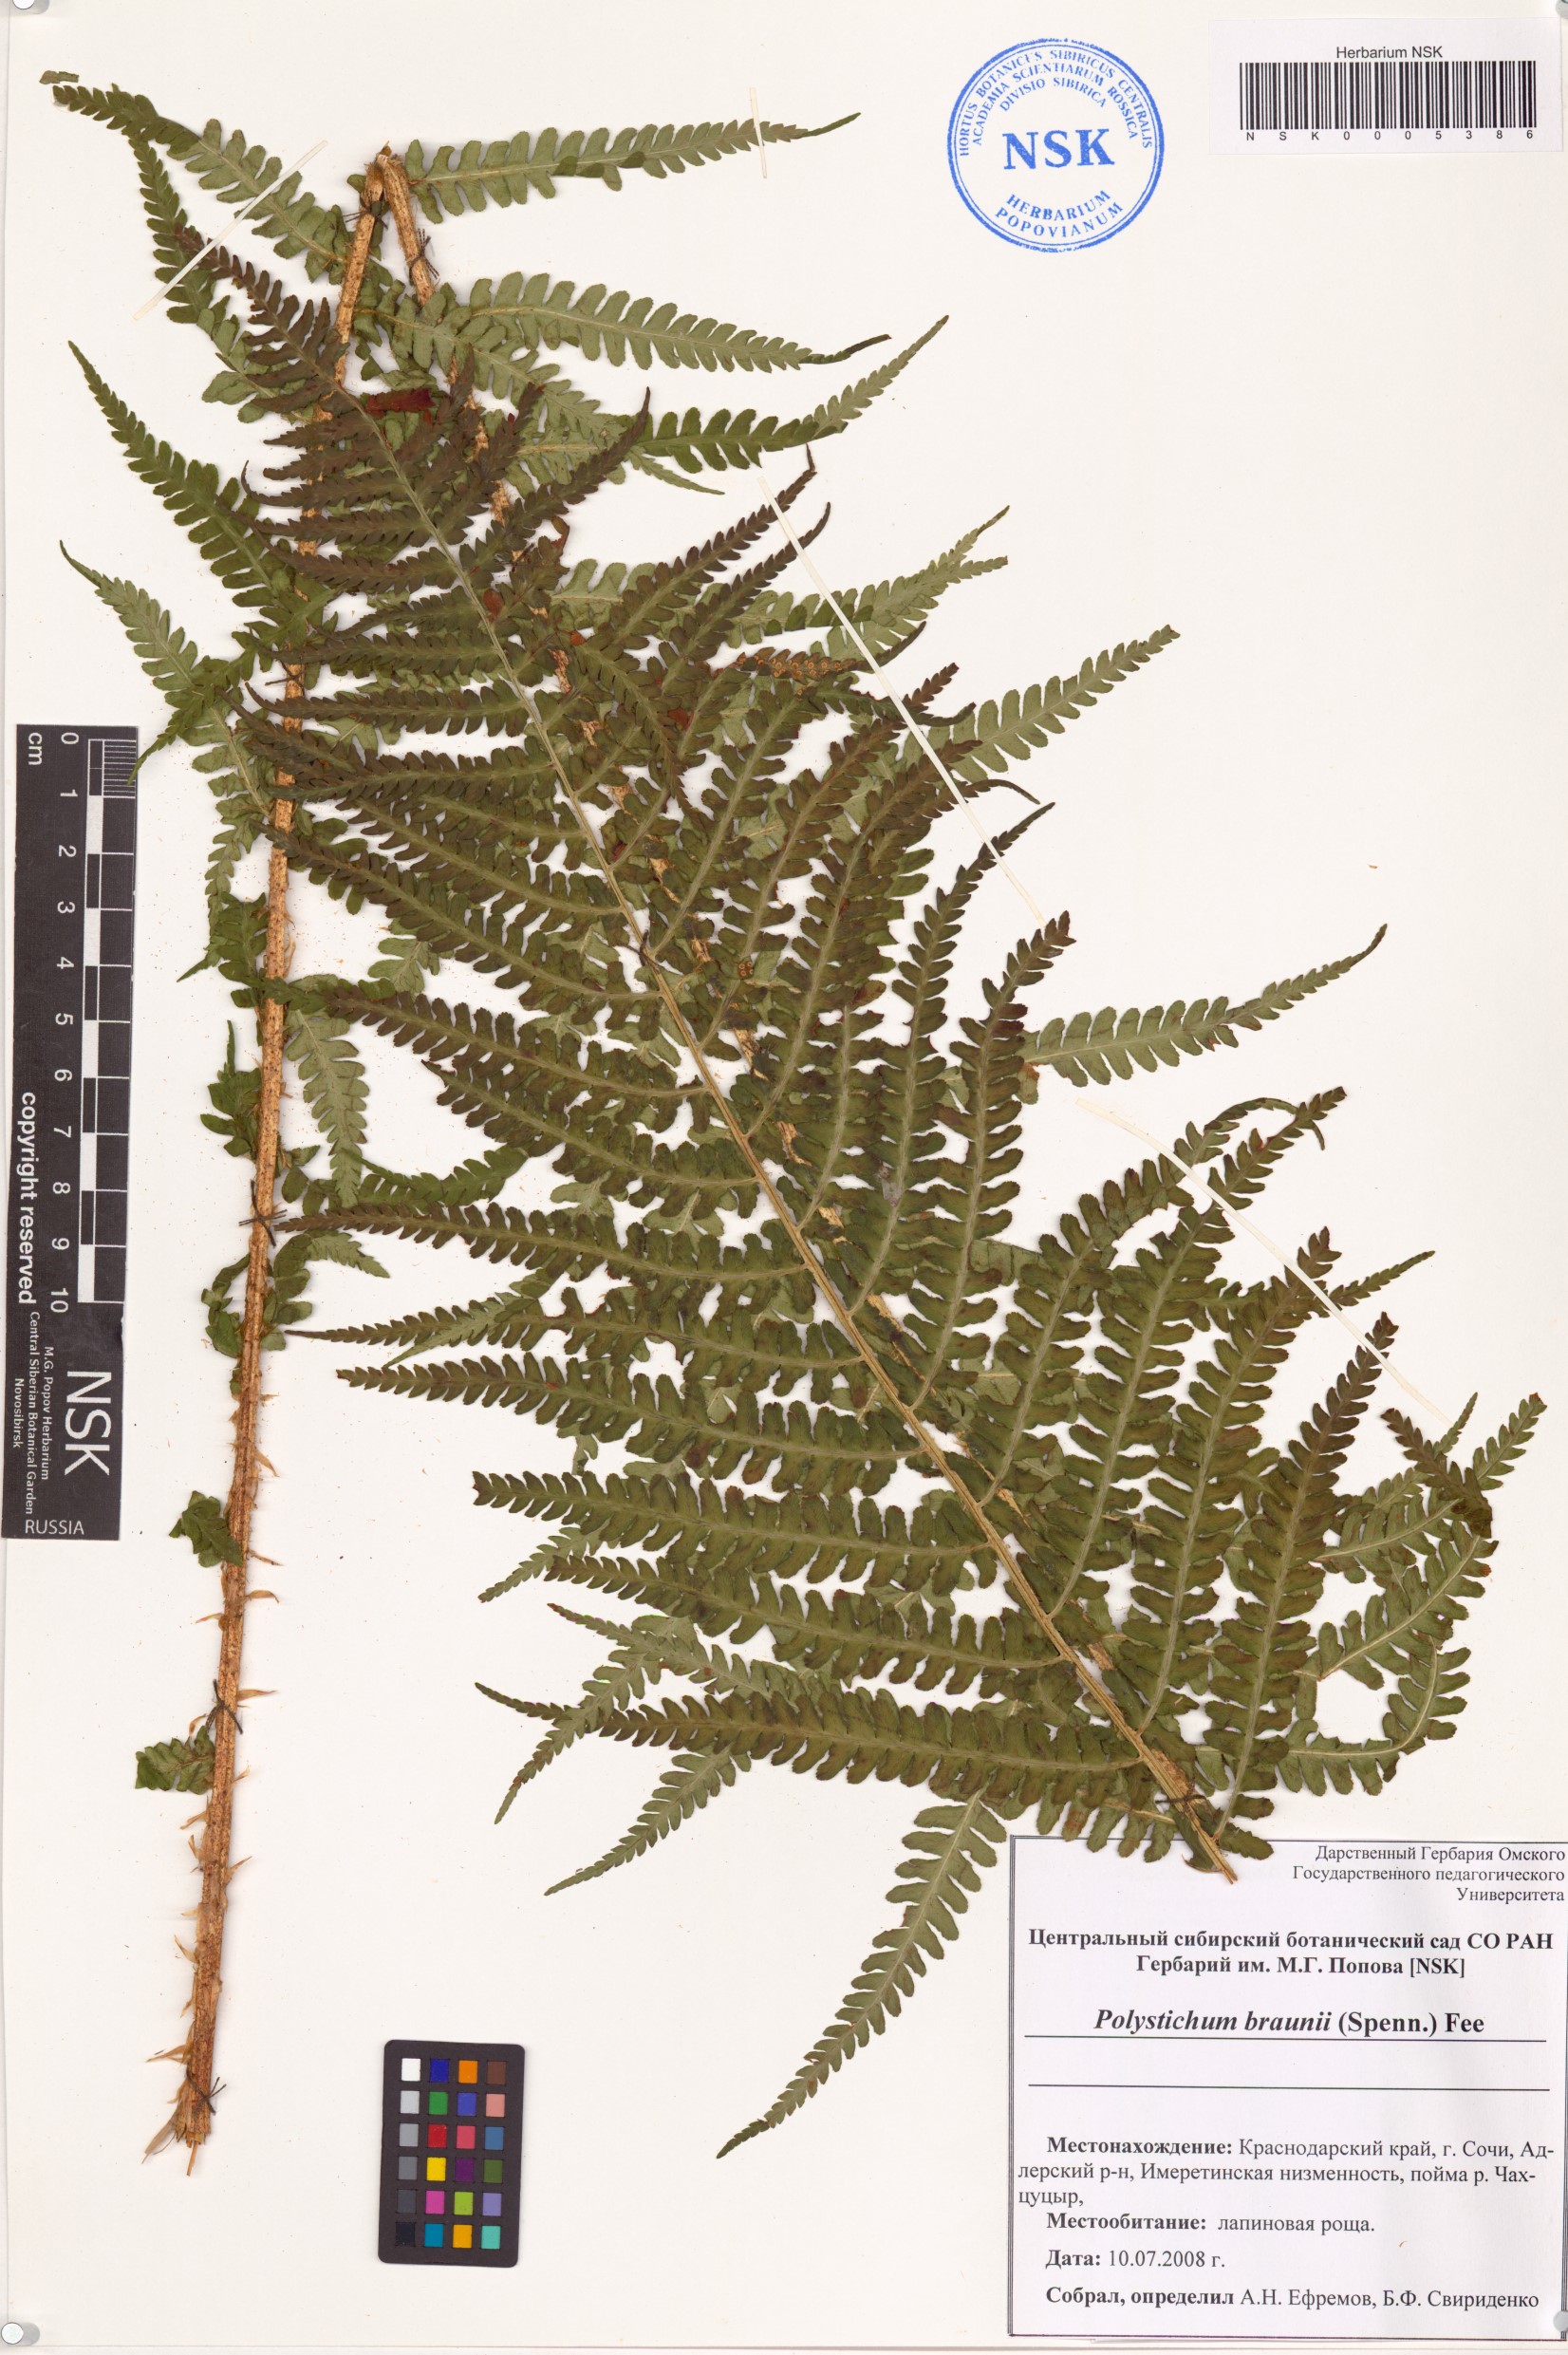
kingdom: Plantae
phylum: Tracheophyta
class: Polypodiopsida
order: Polypodiales
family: Dryopteridaceae
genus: Polystichum
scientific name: Polystichum braunii
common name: Braun's holly fern
